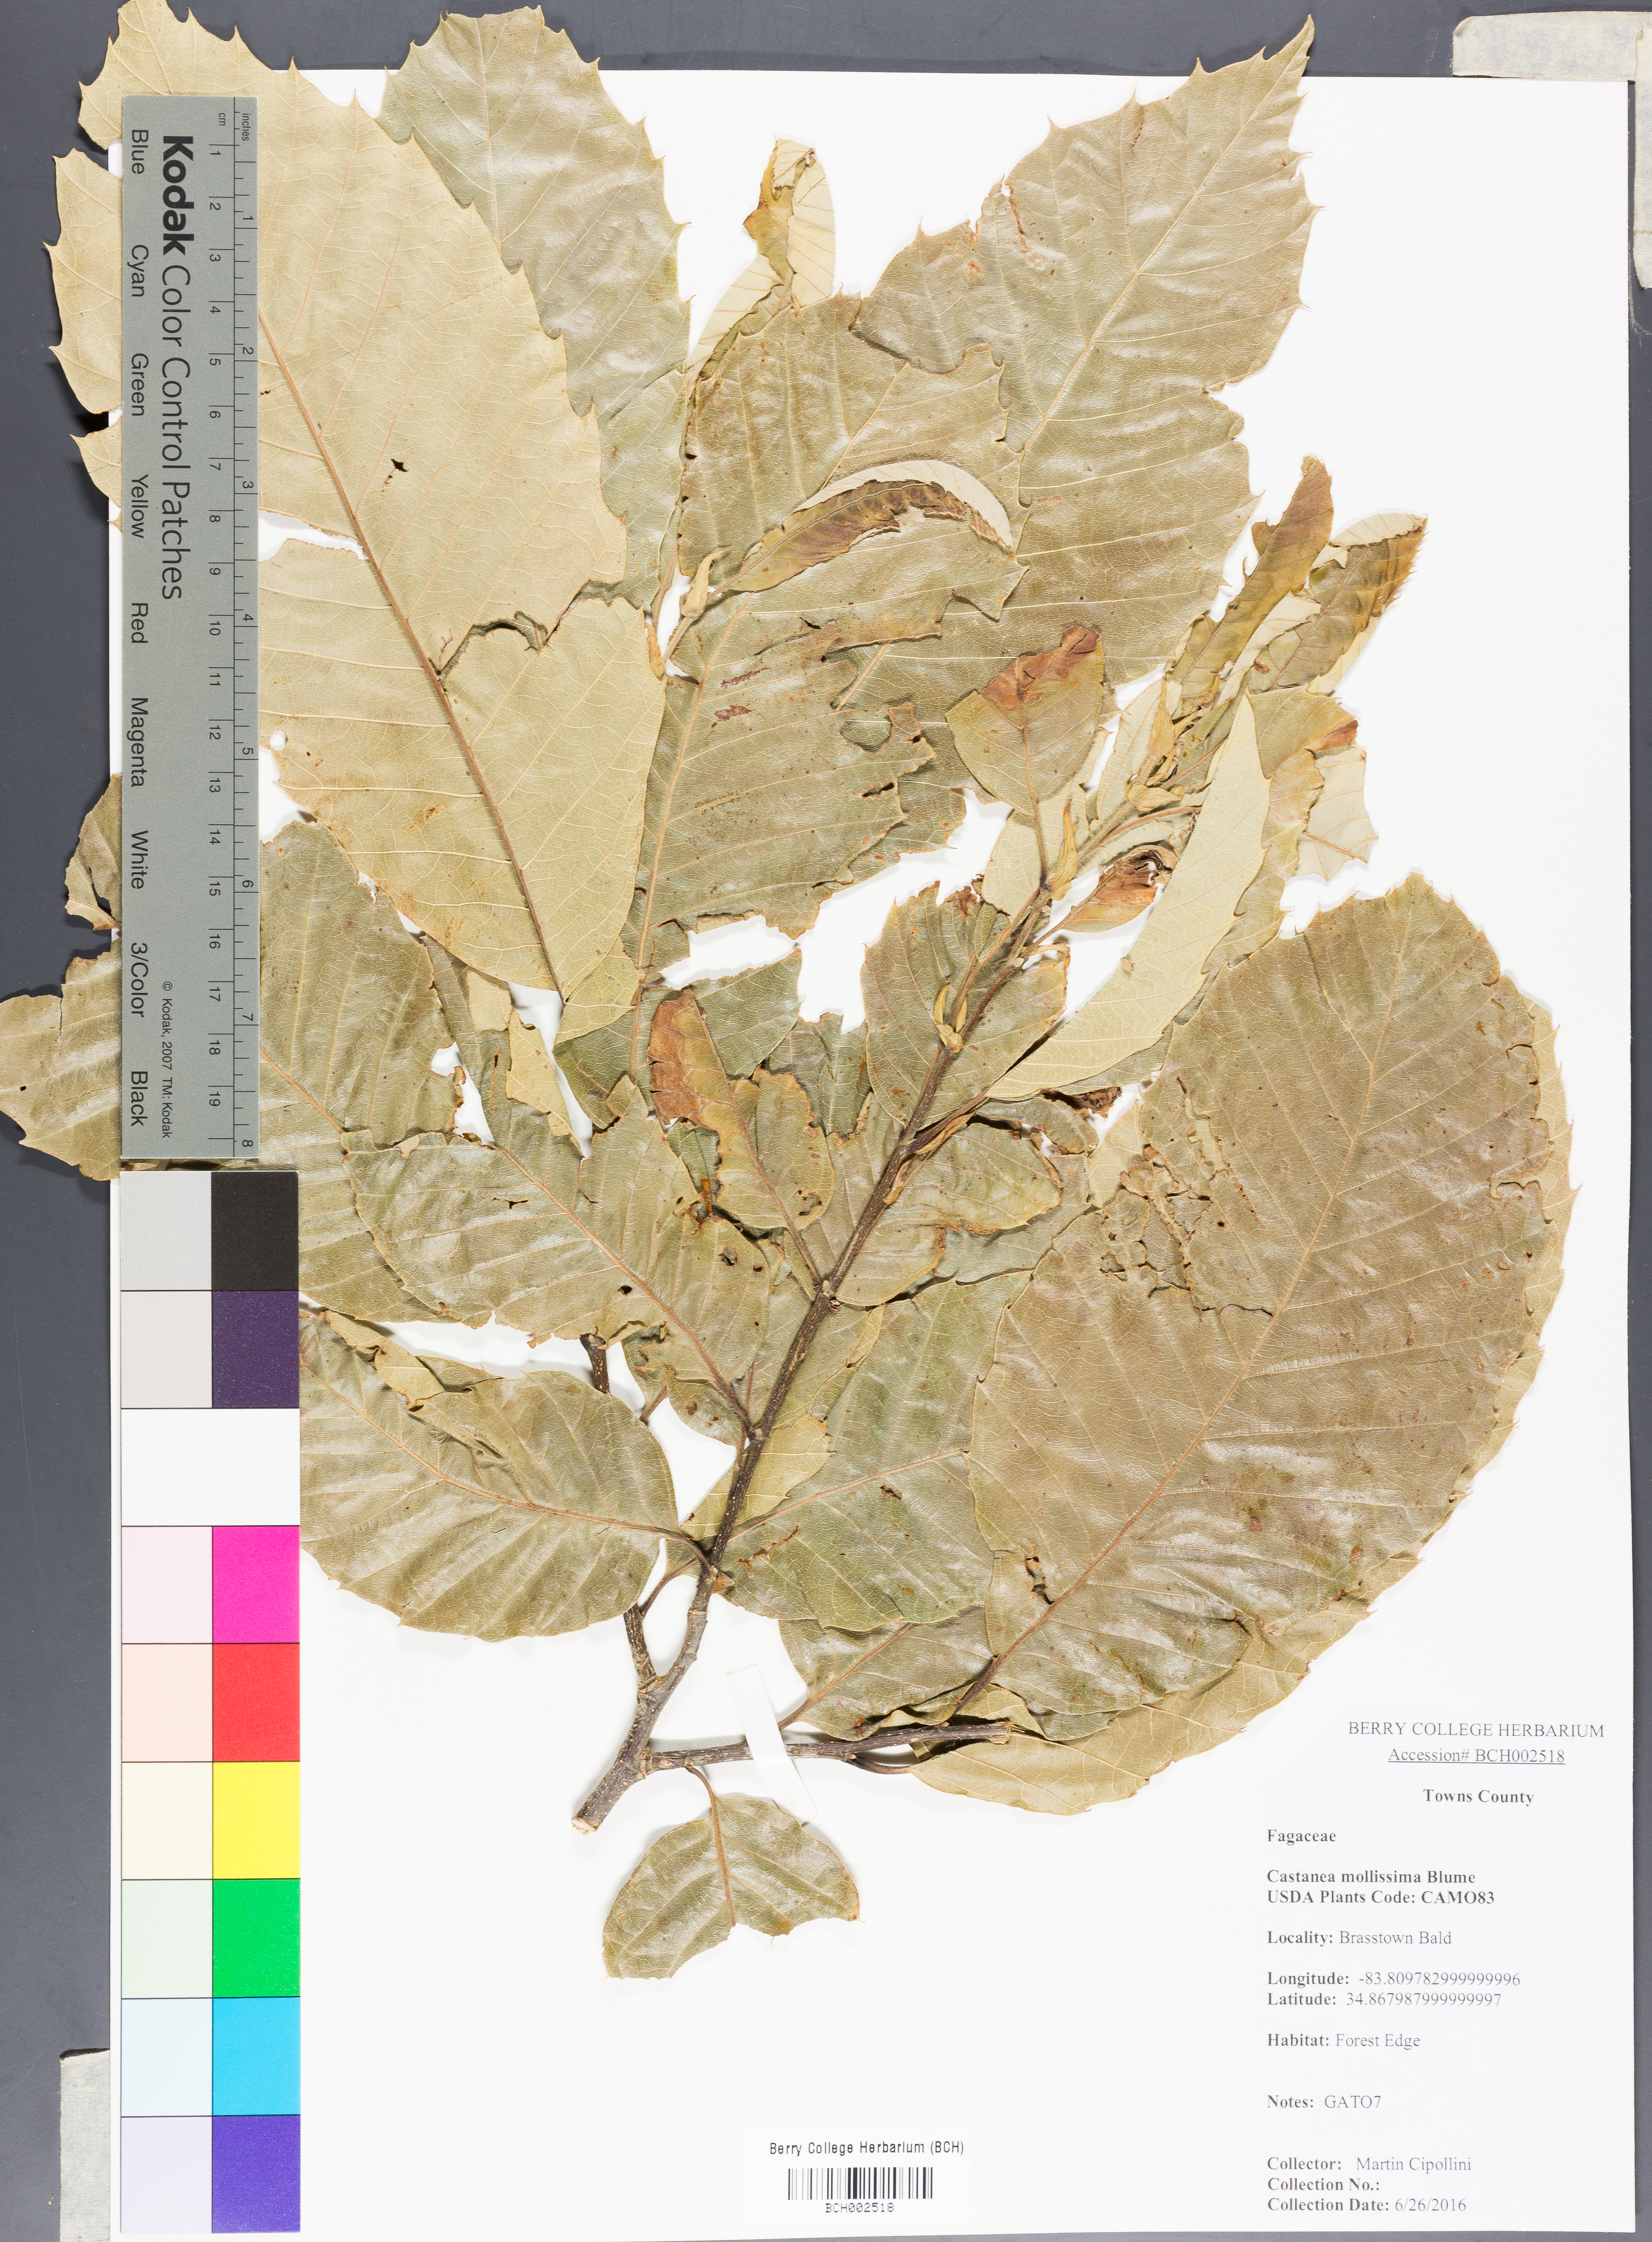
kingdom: Plantae
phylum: Tracheophyta
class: Magnoliopsida
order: Fagales
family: Fagaceae
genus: Castanea
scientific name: Castanea mollissima
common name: Chinese chestnut
